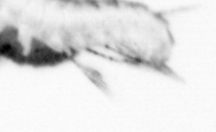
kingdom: Animalia
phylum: Annelida
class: Polychaeta
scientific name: Polychaeta
